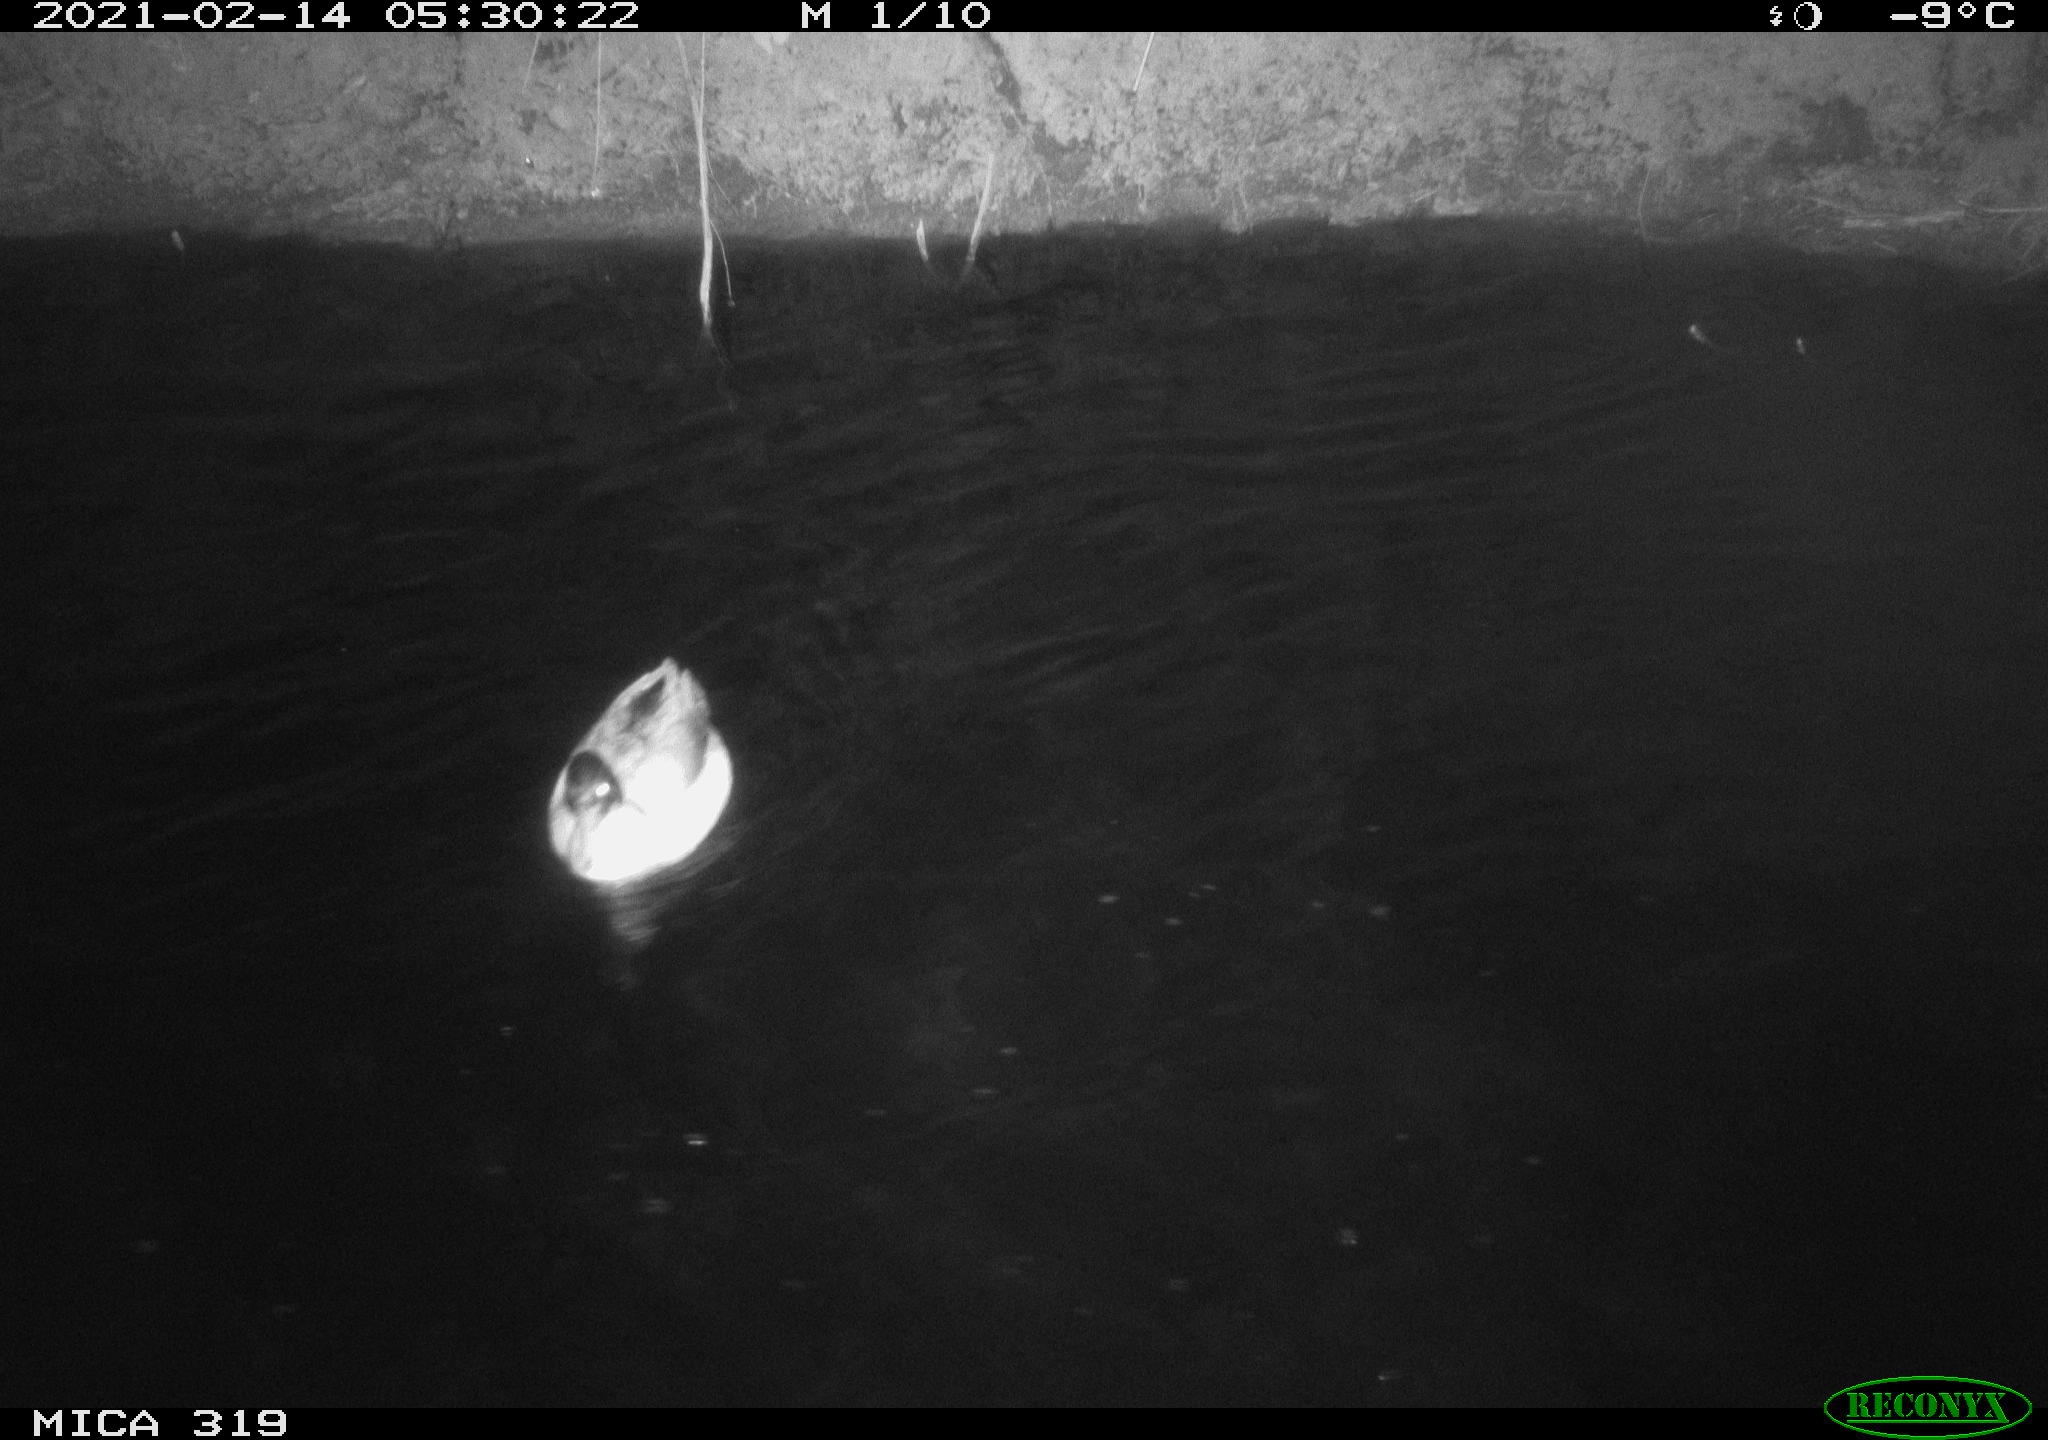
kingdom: Animalia
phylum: Chordata
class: Aves
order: Anseriformes
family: Anatidae
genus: Anas
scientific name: Anas platyrhynchos
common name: Mallard
